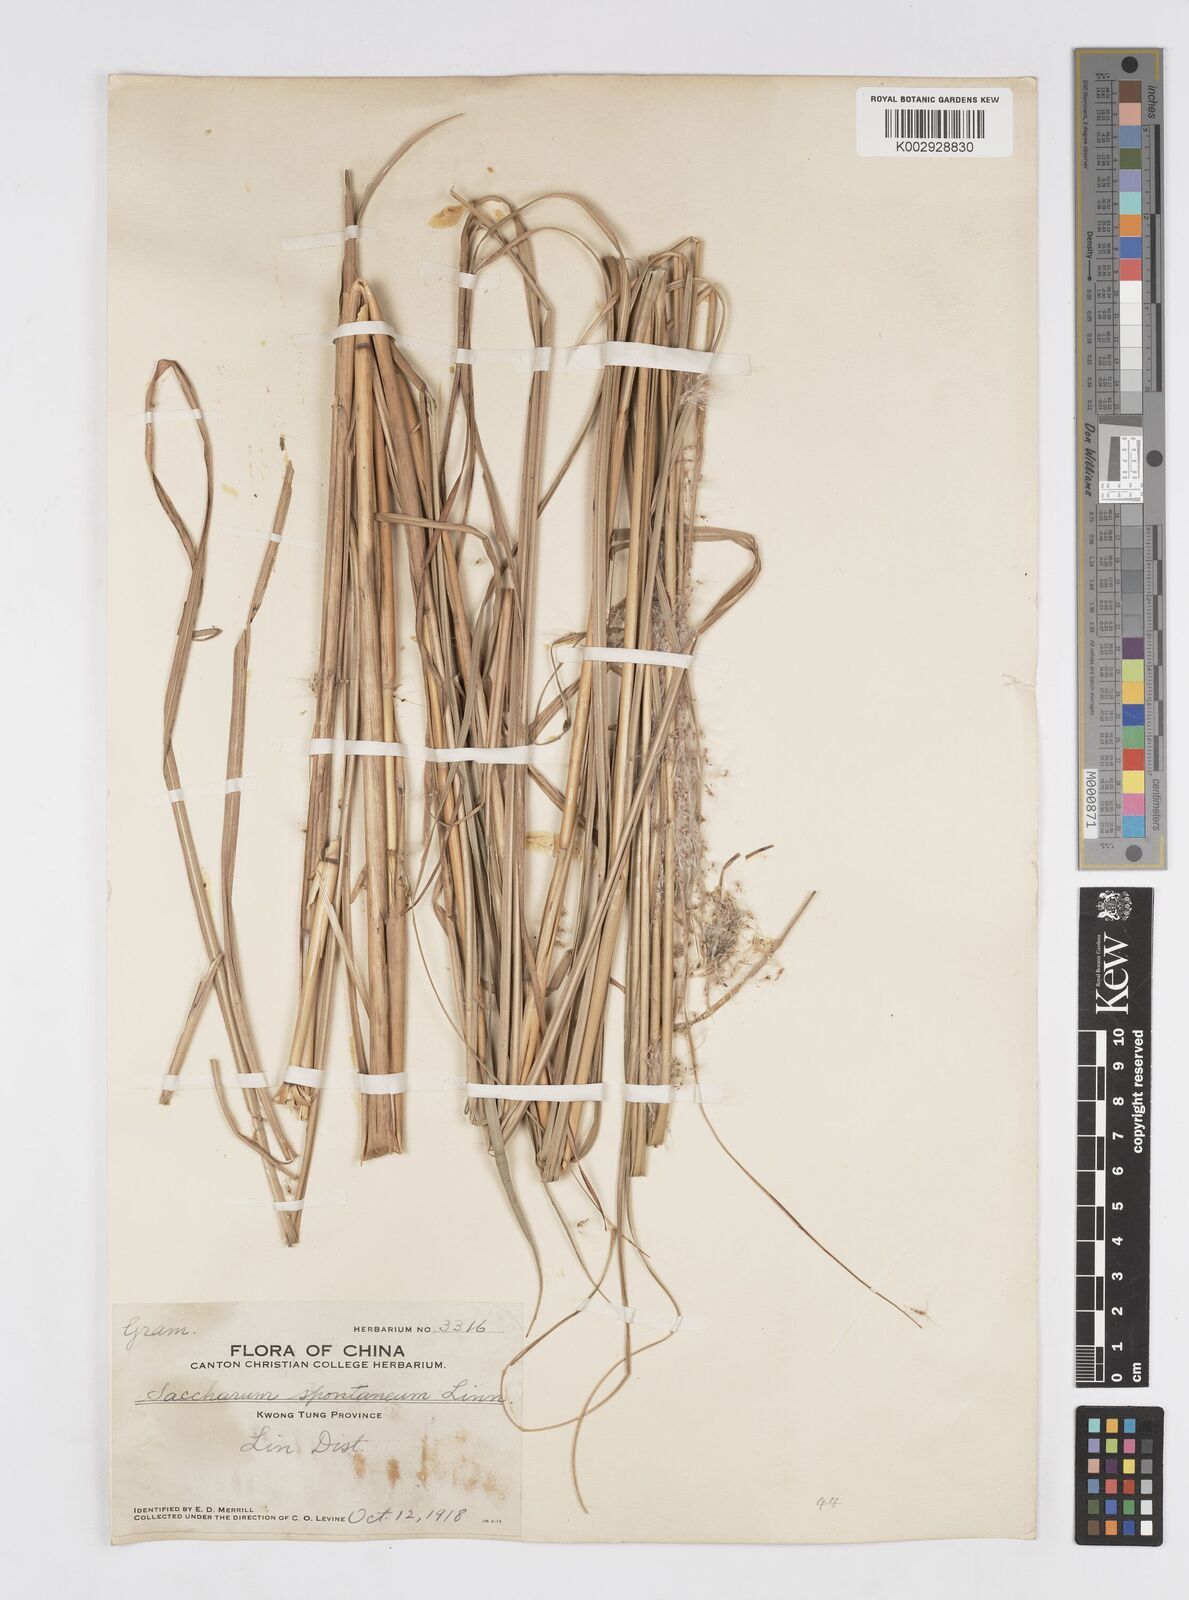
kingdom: Plantae
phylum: Tracheophyta
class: Liliopsida
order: Poales
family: Poaceae
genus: Saccharum
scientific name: Saccharum spontaneum
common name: Wild sugarcane
